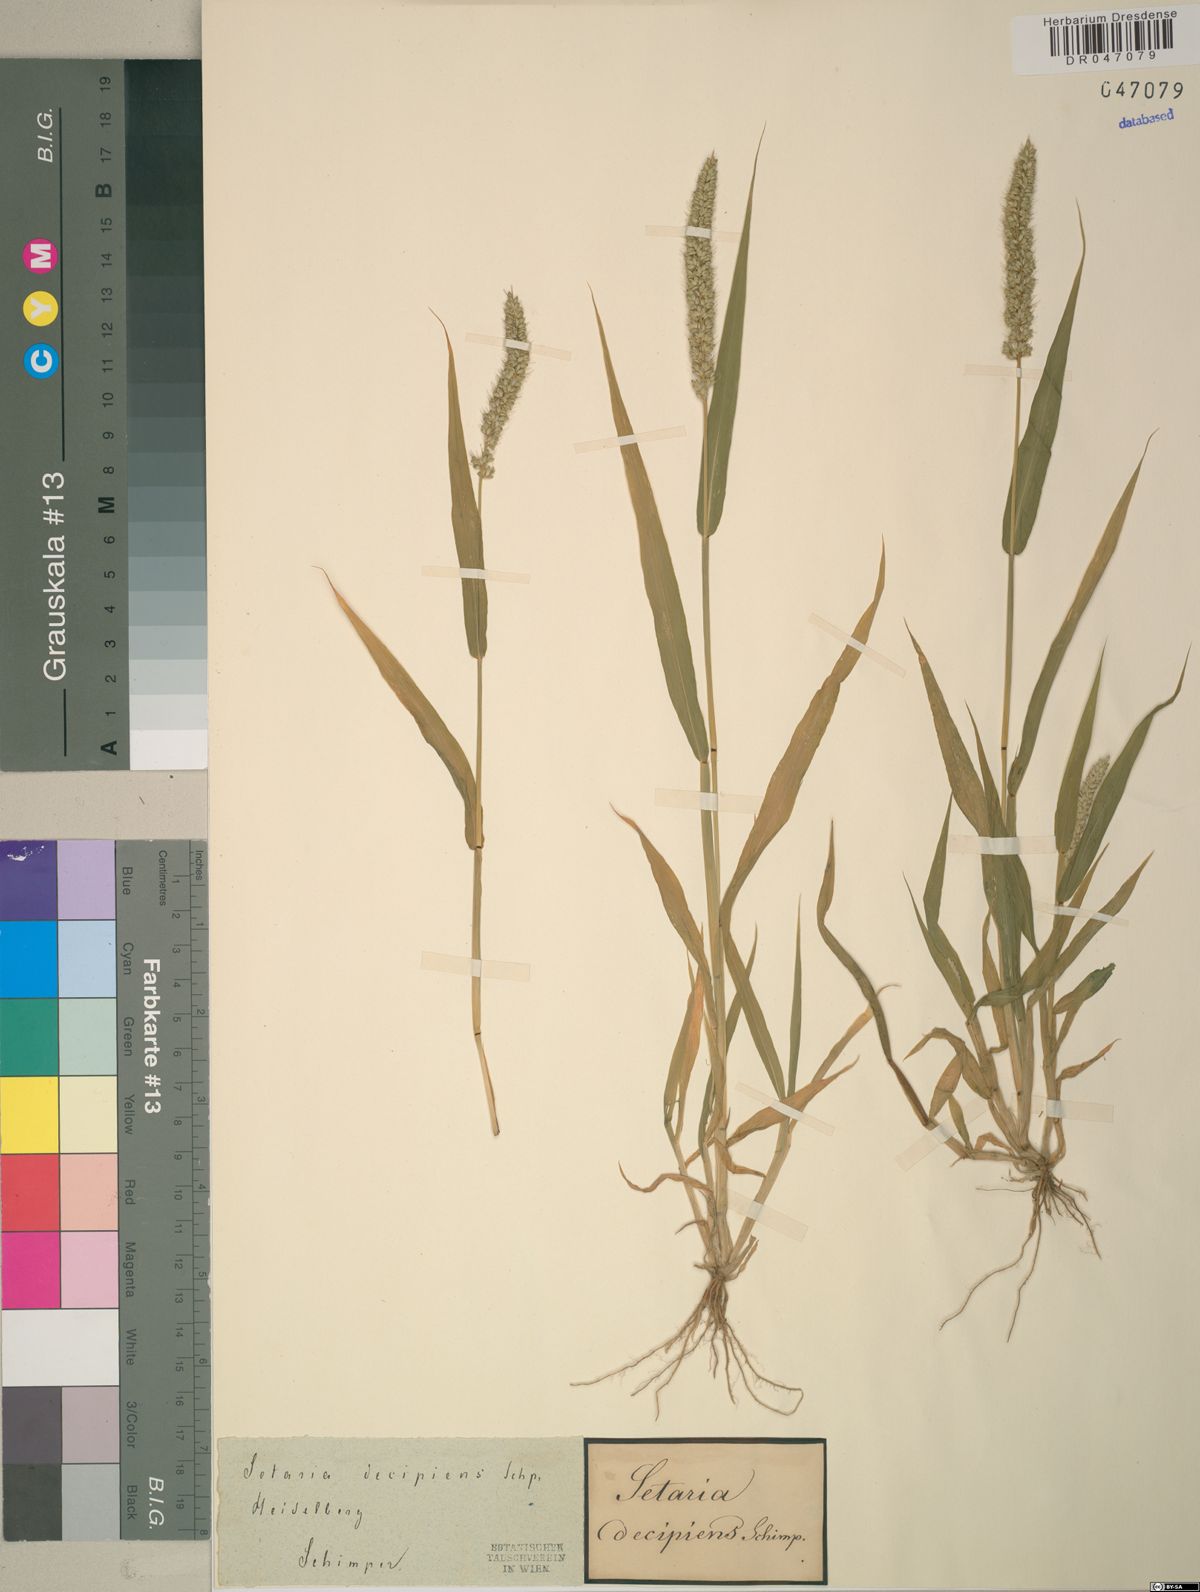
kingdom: Plantae
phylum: Tracheophyta
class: Liliopsida
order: Poales
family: Poaceae
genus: Setaria
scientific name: Setaria verticillata
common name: Hooked bristlegrass
